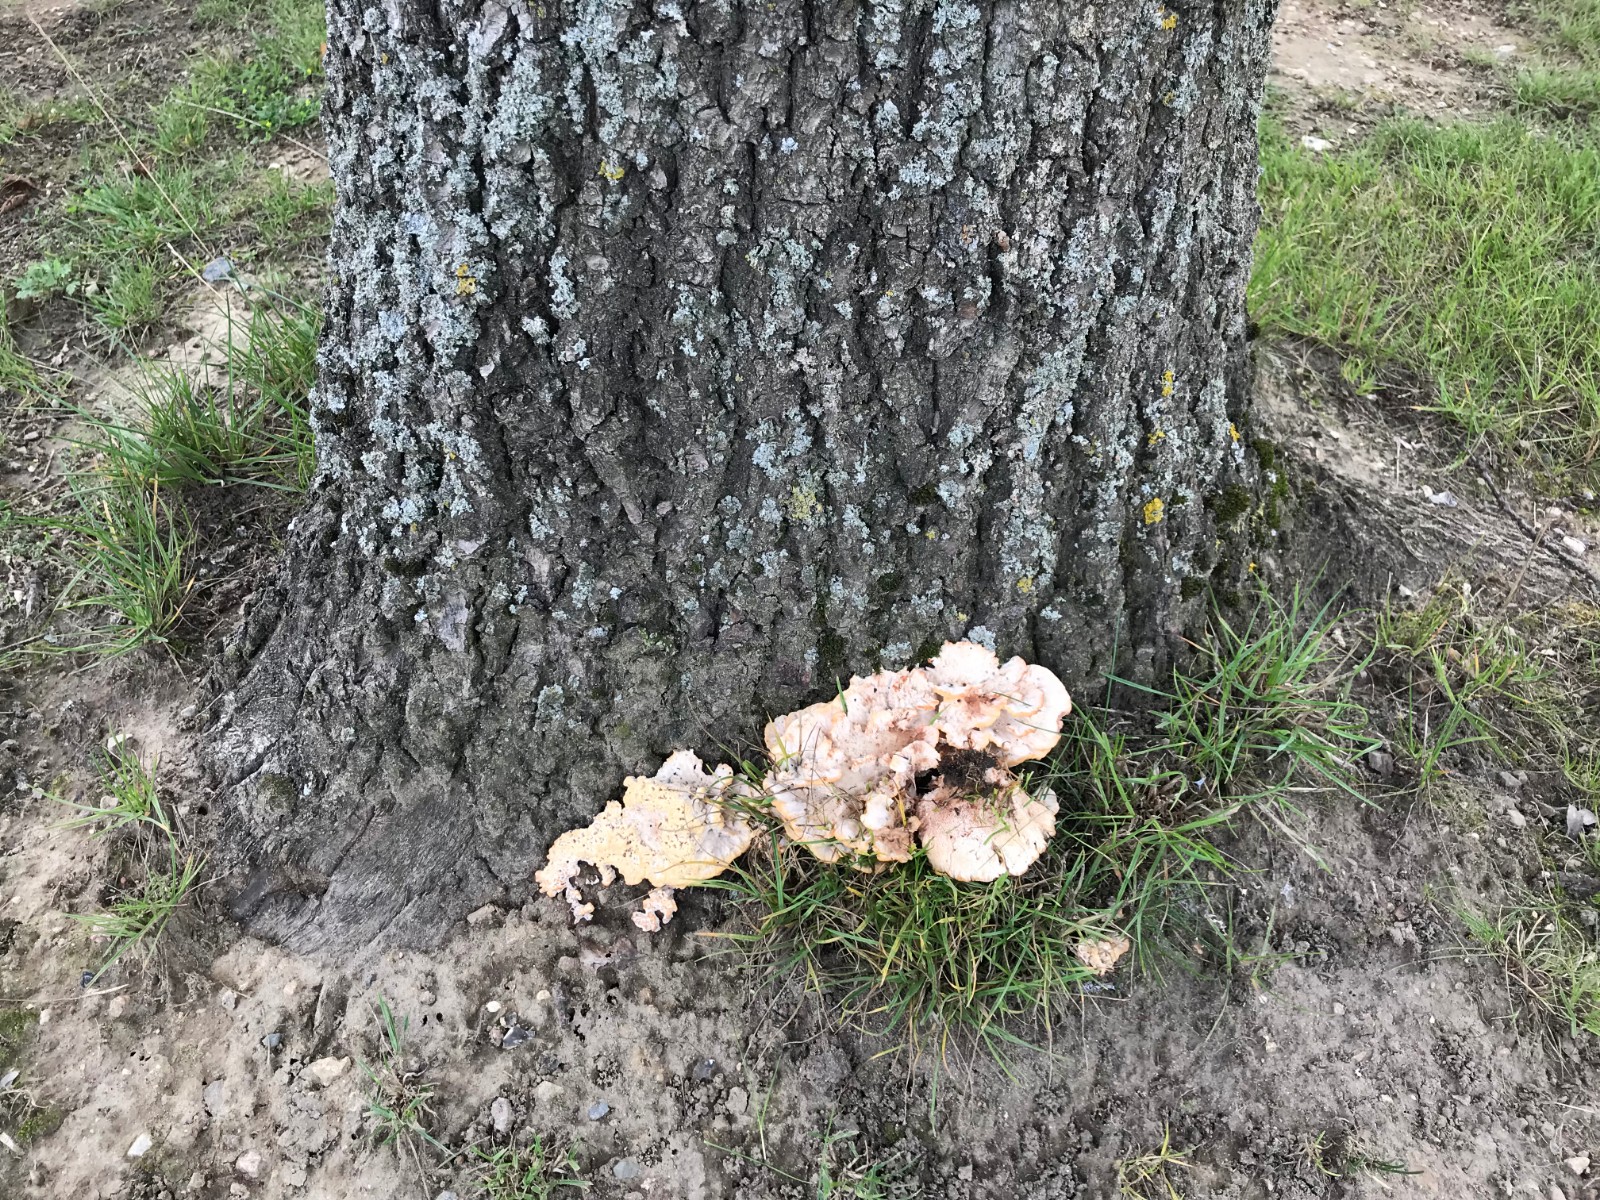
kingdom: Fungi
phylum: Basidiomycota
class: Agaricomycetes
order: Polyporales
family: Podoscyphaceae
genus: Abortiporus
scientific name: Abortiporus biennis
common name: rødmende pjalteporesvamp
